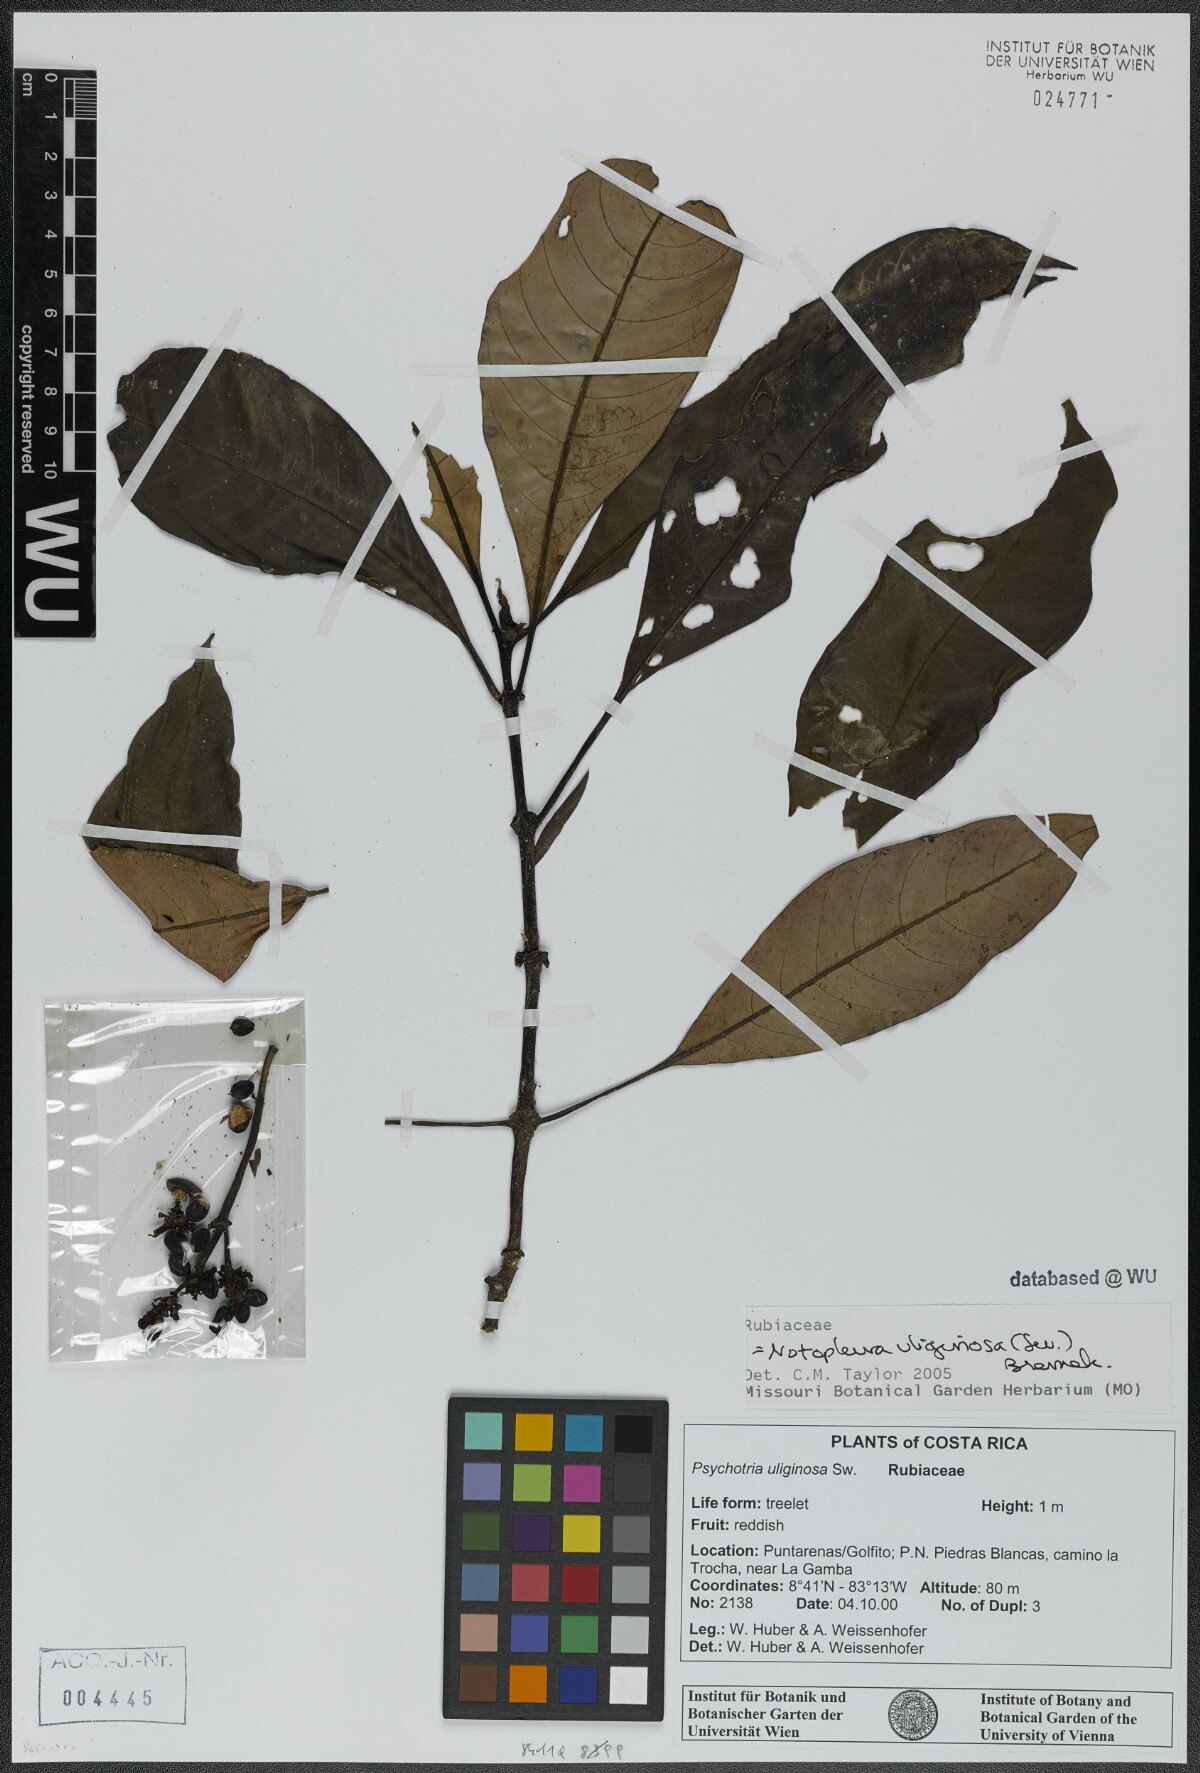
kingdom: Plantae
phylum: Tracheophyta
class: Magnoliopsida
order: Gentianales
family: Rubiaceae
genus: Notopleura
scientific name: Notopleura uliginosa
